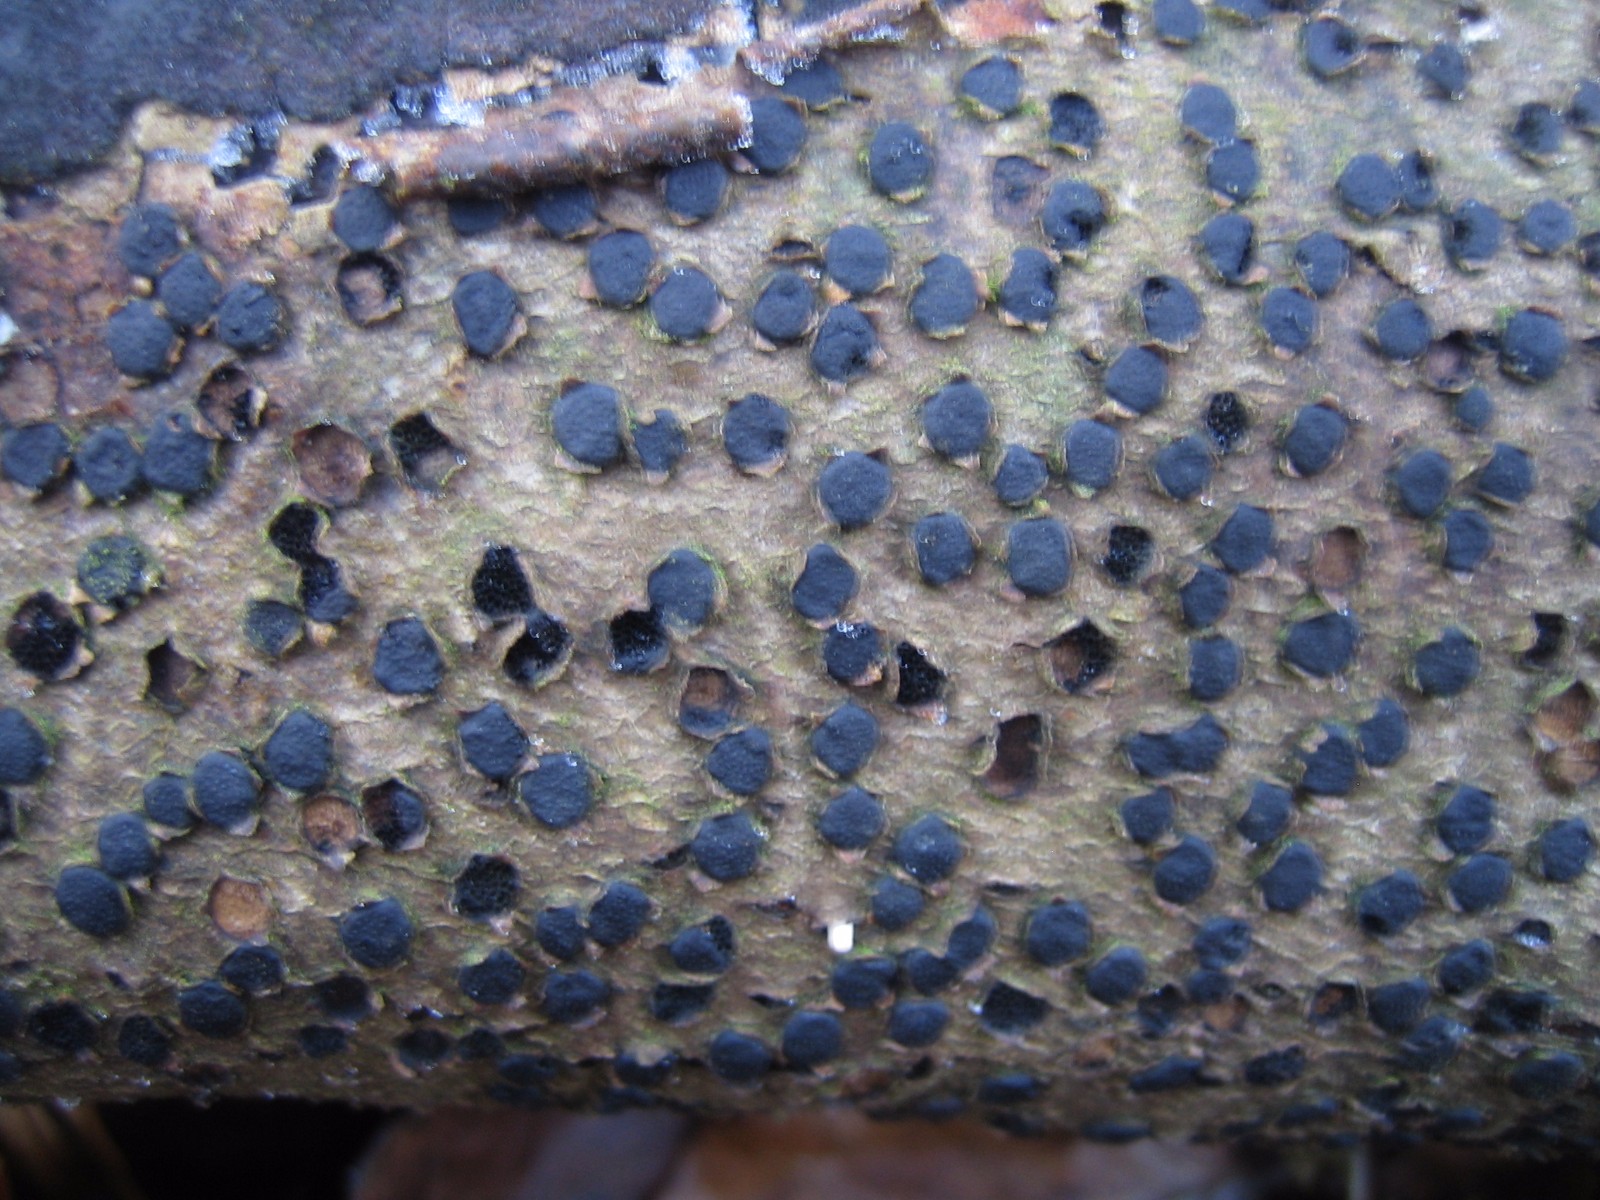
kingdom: Fungi
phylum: Ascomycota
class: Sordariomycetes
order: Xylariales
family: Diatrypaceae
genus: Diatrype
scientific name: Diatrype disciformis
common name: kant-kulskorpe
